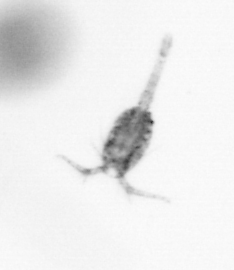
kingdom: Animalia
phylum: Arthropoda
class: Copepoda
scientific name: Copepoda
